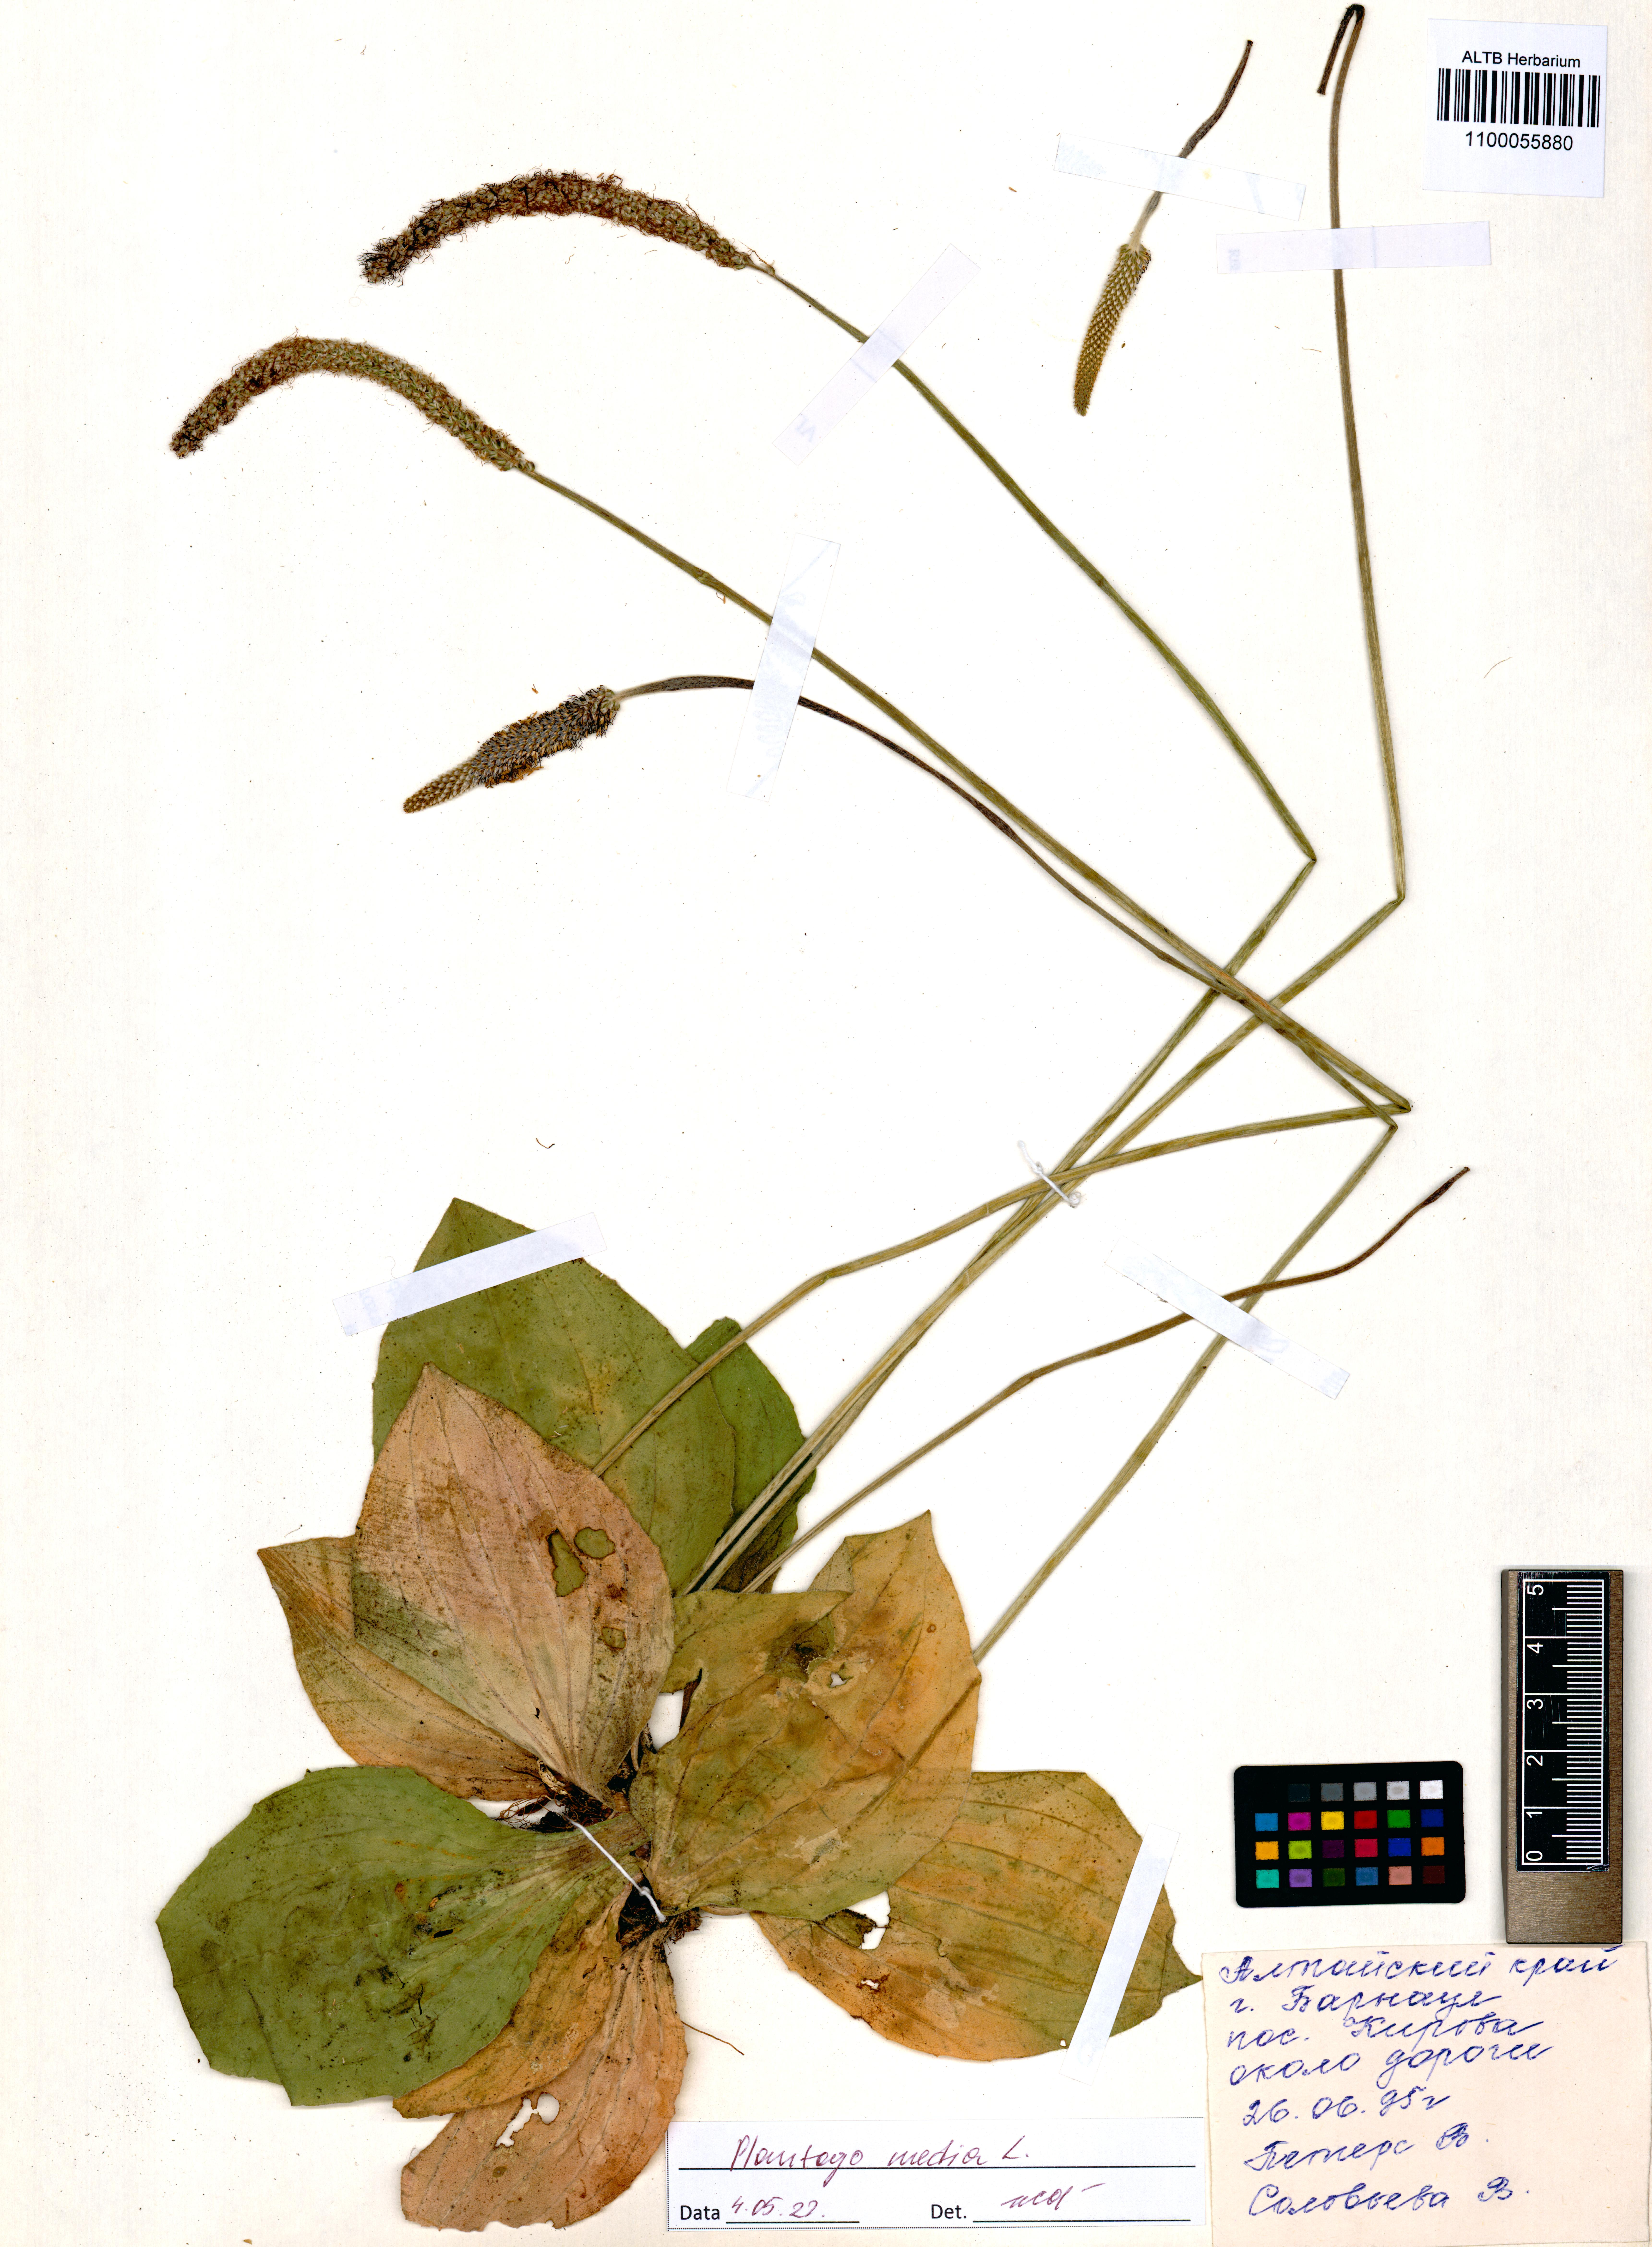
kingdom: Plantae
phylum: Tracheophyta
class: Magnoliopsida
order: Lamiales
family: Plantaginaceae
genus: Plantago
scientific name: Plantago media
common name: Hoary plantain
